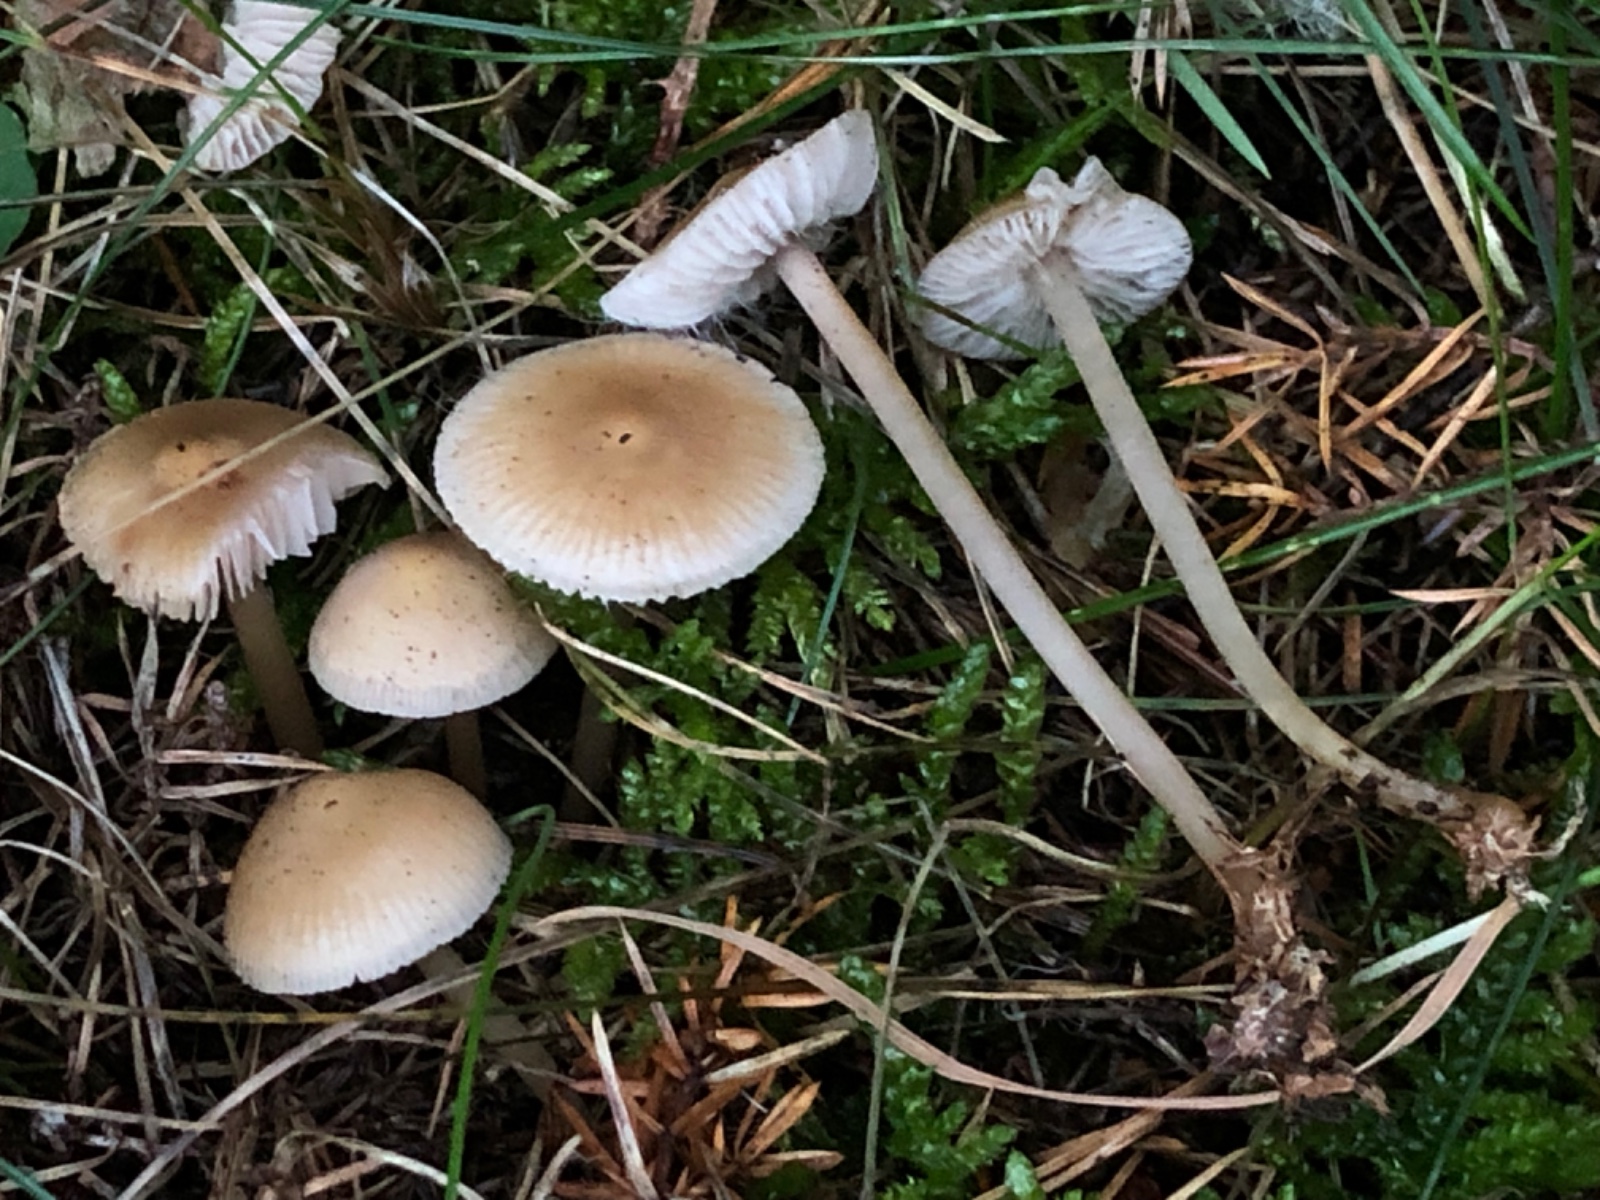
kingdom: Fungi
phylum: Basidiomycota
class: Agaricomycetes
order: Agaricales
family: Mycenaceae
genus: Mycena
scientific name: Mycena luteovariegata
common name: lillagul huesvamp
